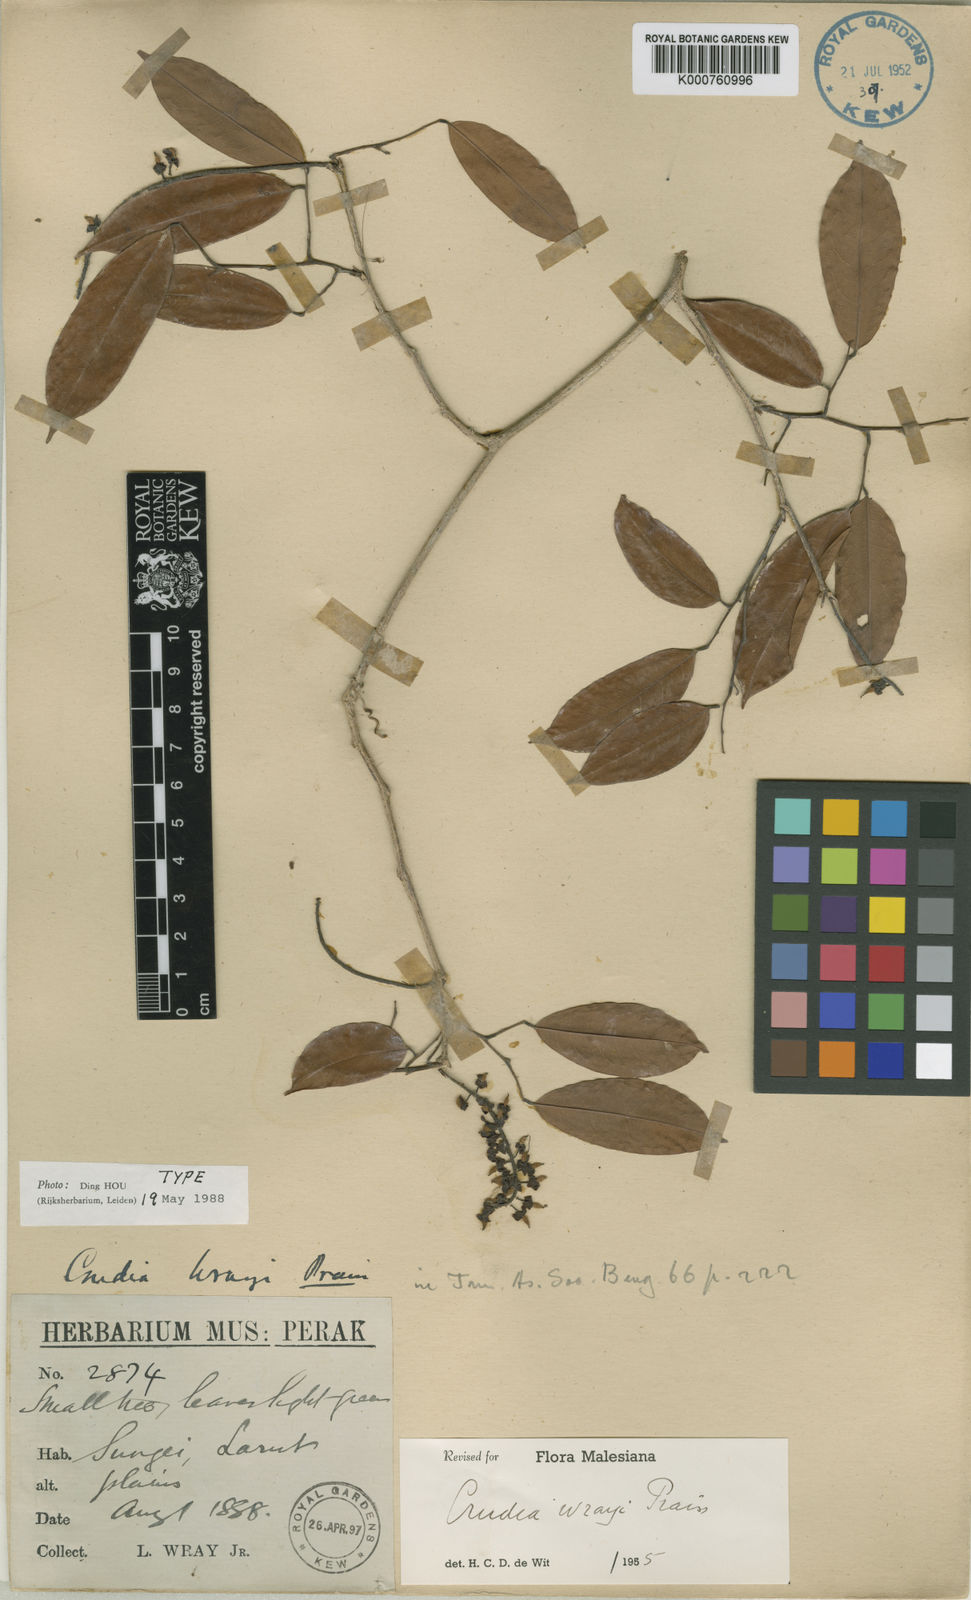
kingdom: Plantae
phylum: Tracheophyta
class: Magnoliopsida
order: Fabales
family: Fabaceae
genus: Crudia
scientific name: Crudia wrayi
